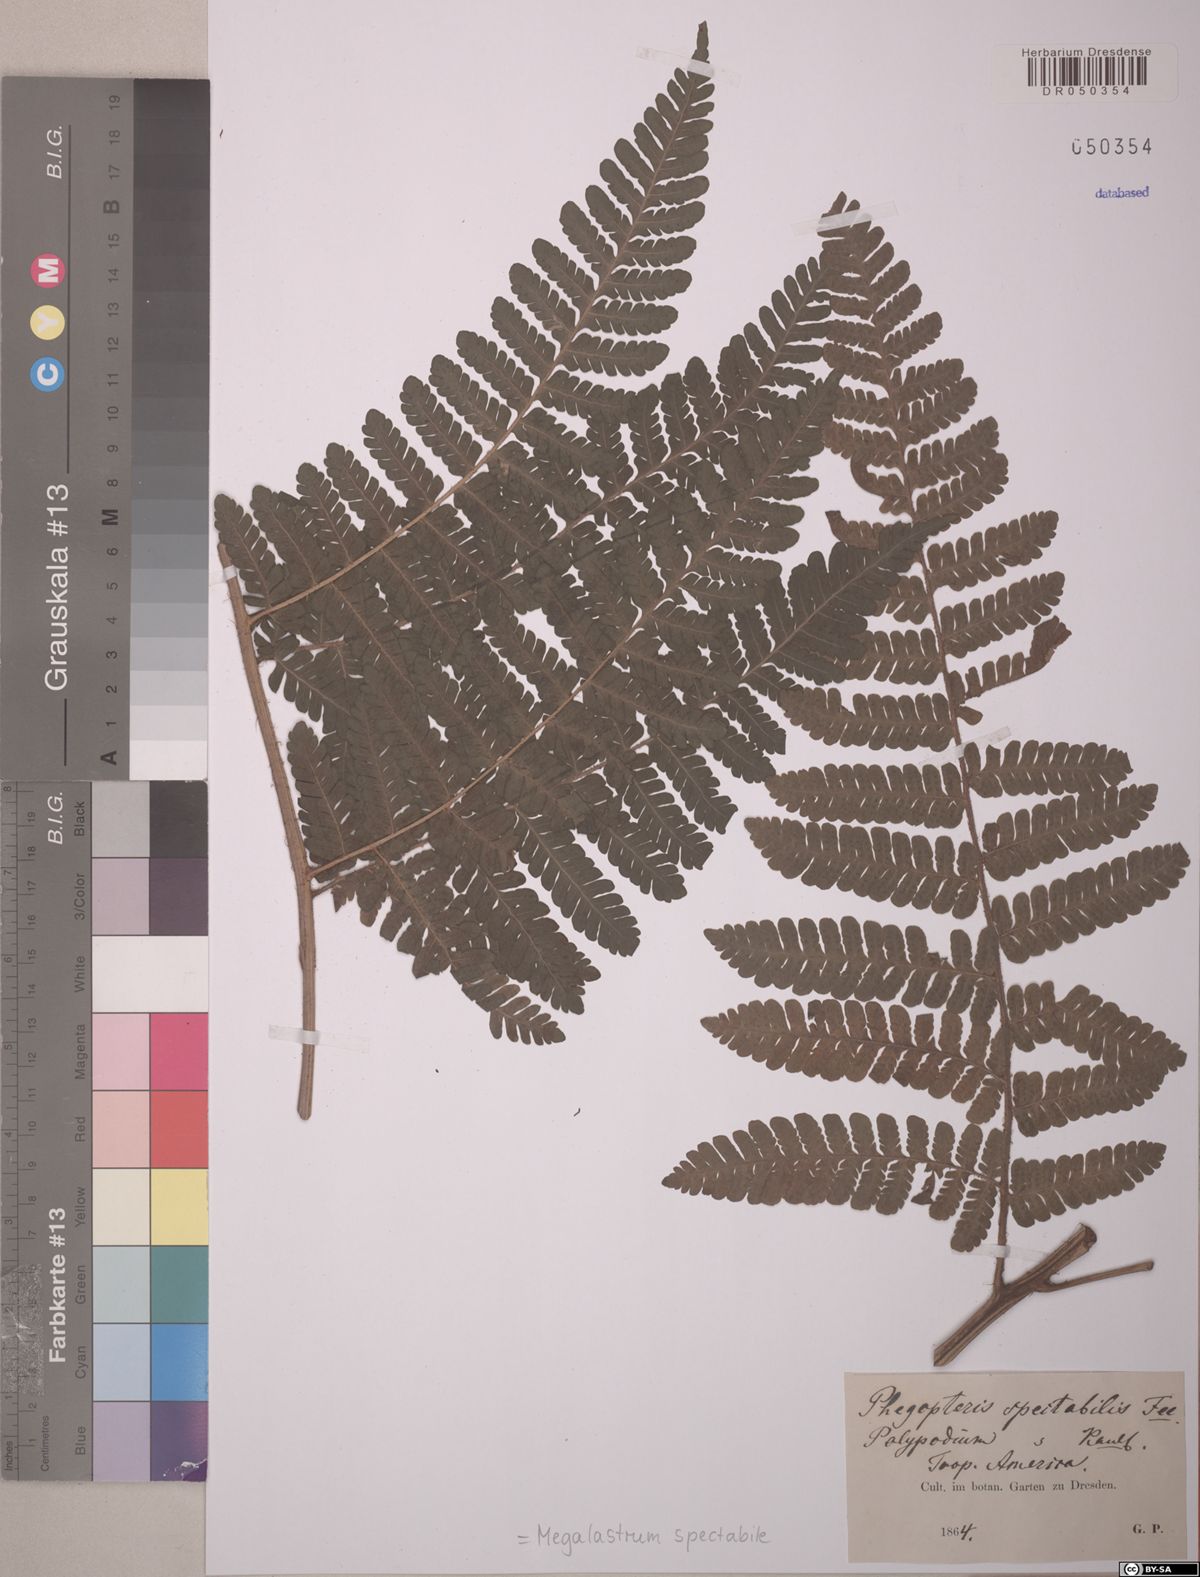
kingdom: Plantae
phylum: Tracheophyta
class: Polypodiopsida
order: Polypodiales
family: Dryopteridaceae
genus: Megalastrum
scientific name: Megalastrum spectabile
